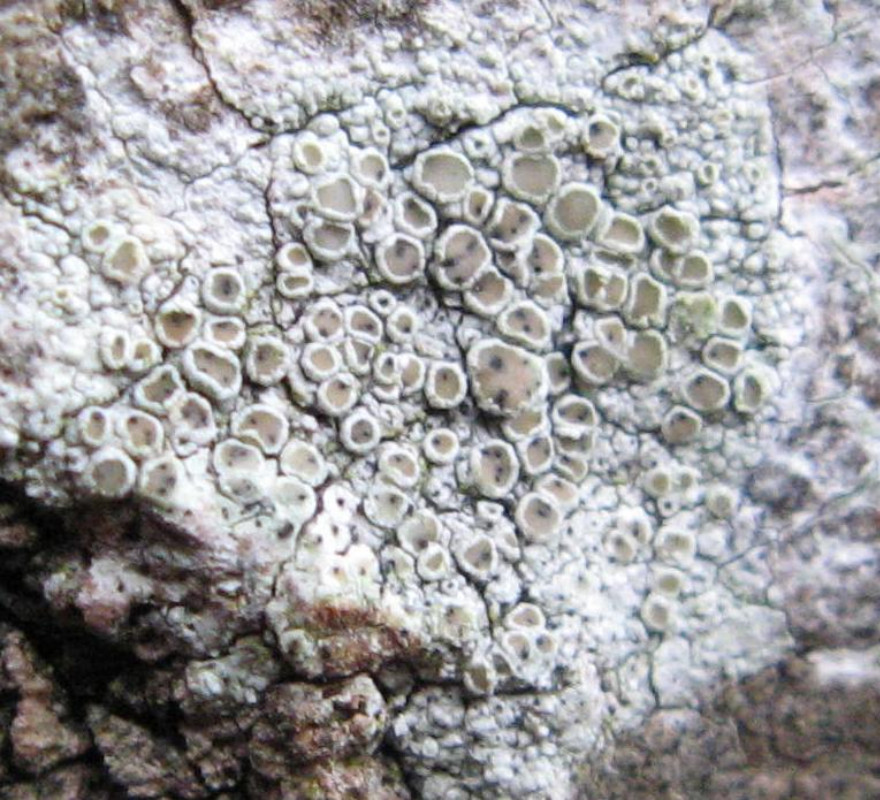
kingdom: Fungi
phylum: Ascomycota
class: Dothideomycetes
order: Pleosporales
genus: Vouauxiella
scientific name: Vouauxiella lichenicola
